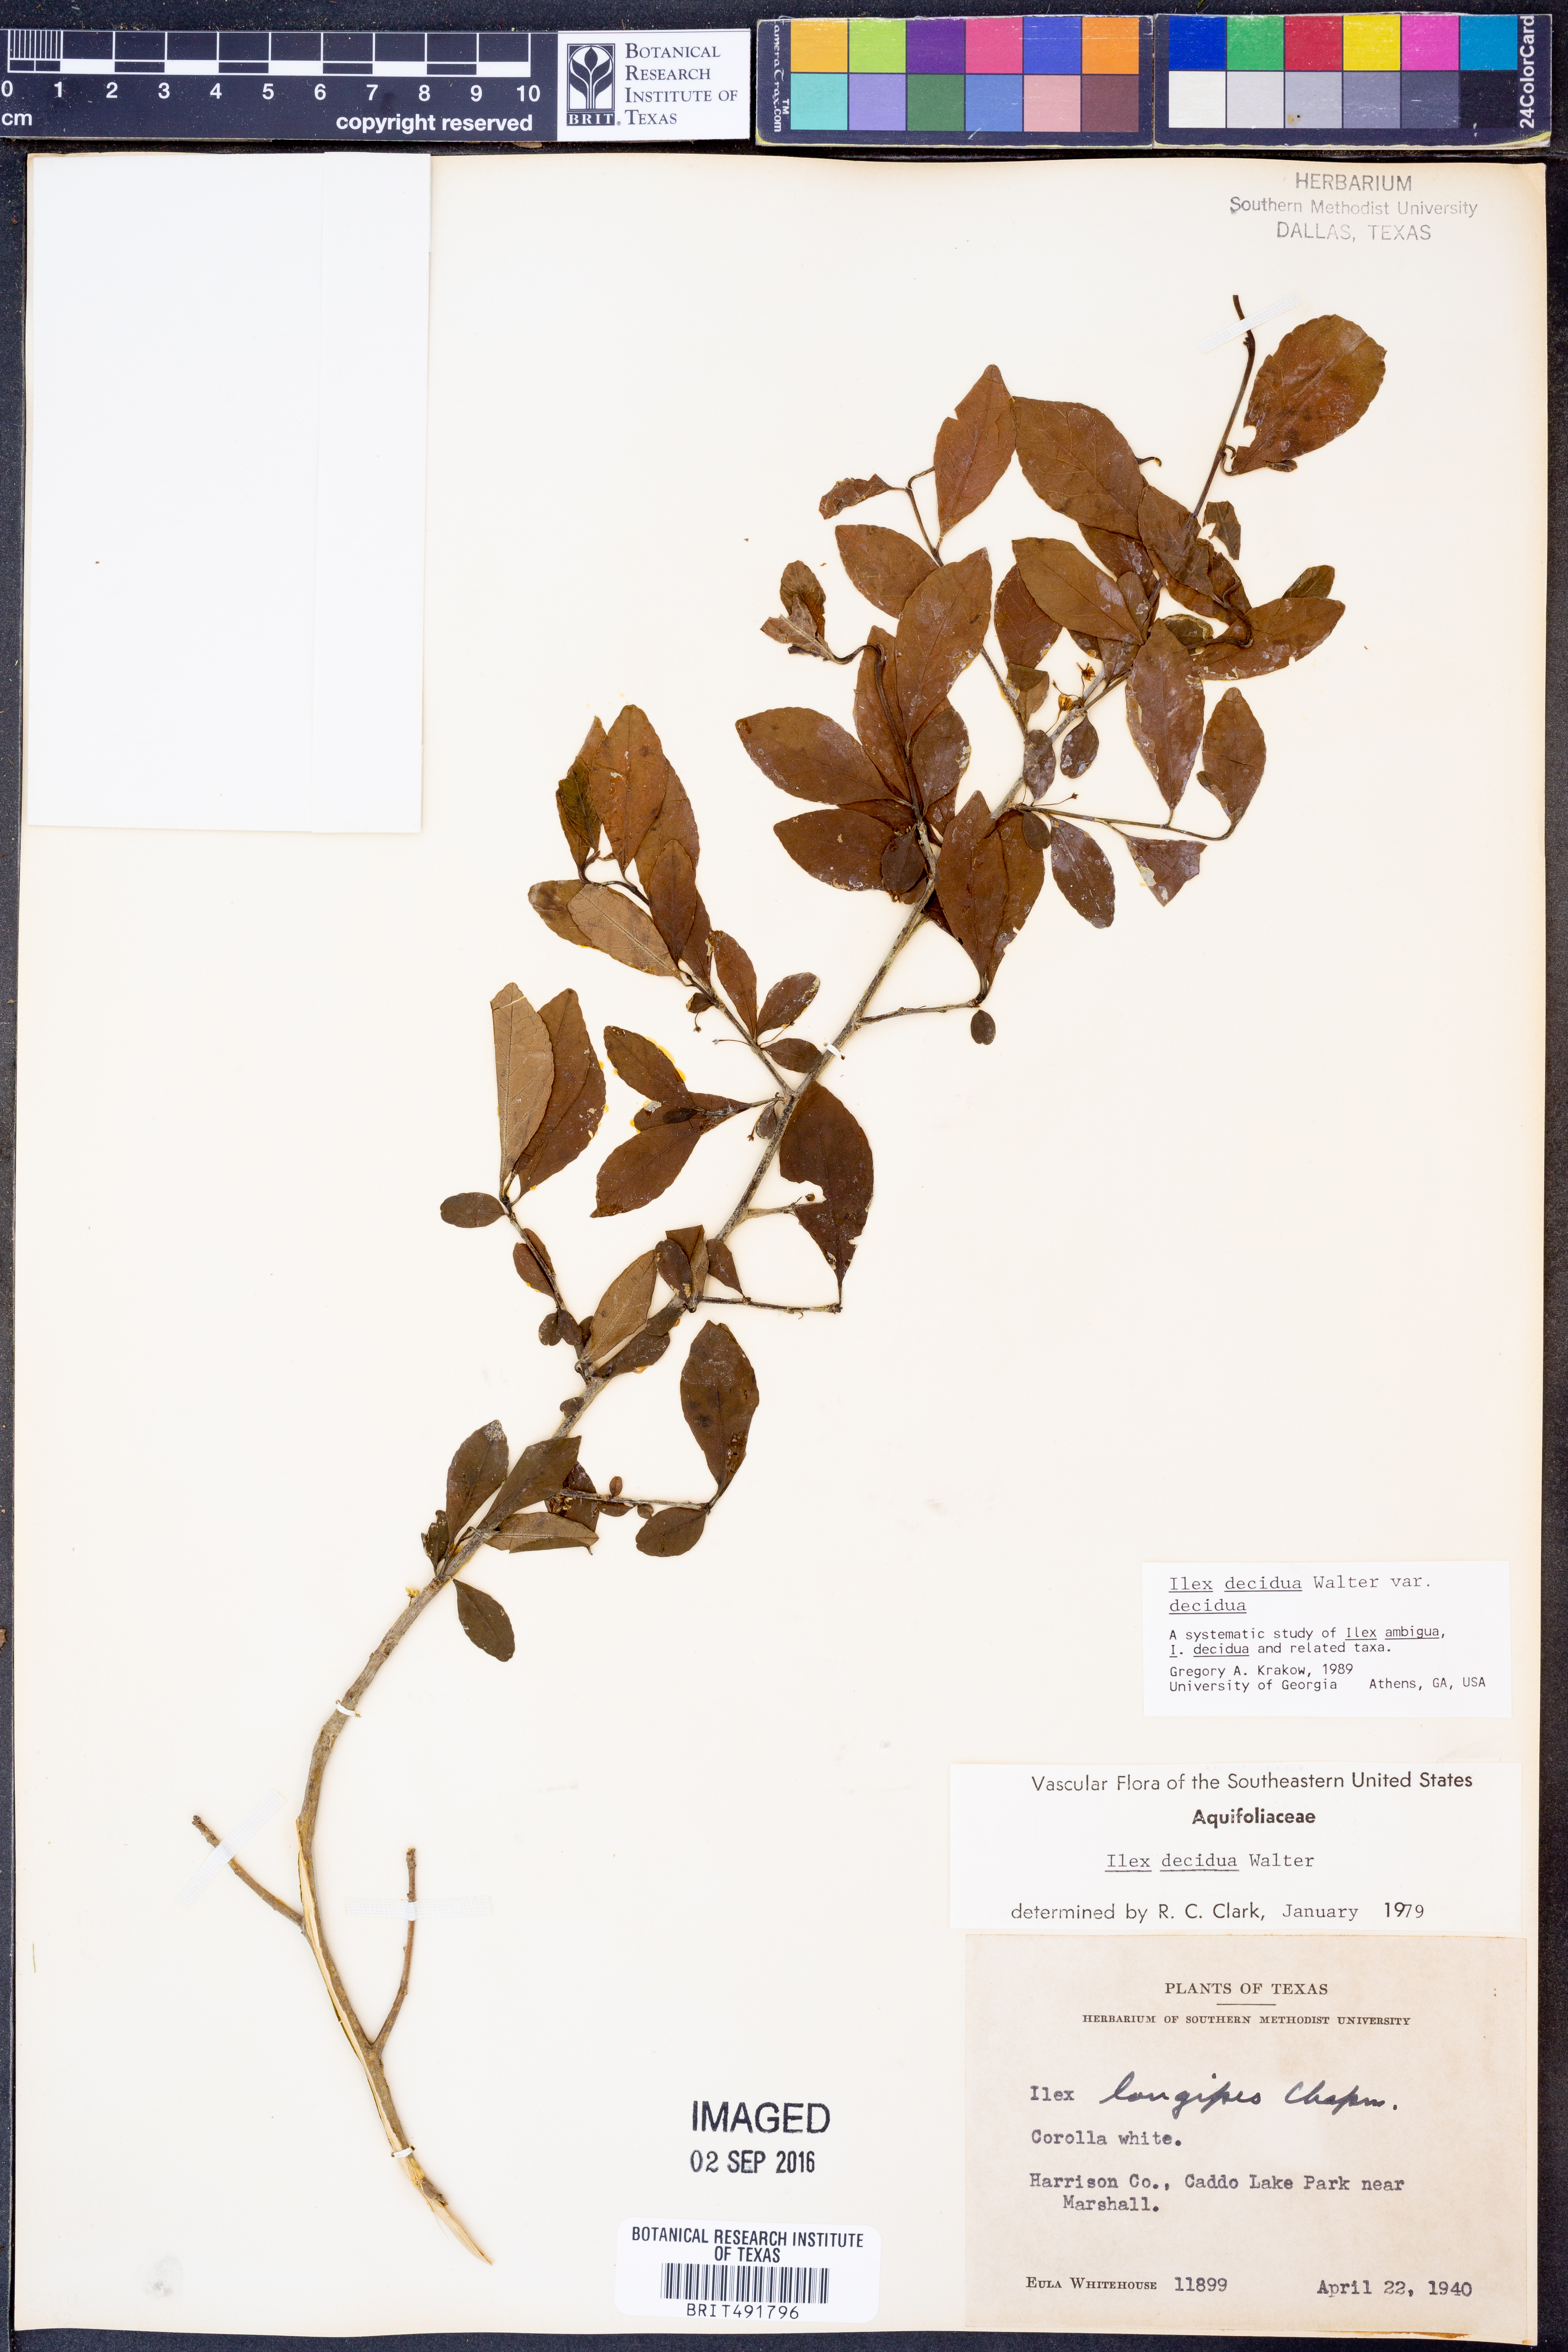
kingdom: Plantae
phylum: Tracheophyta
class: Magnoliopsida
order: Aquifoliales
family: Aquifoliaceae
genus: Ilex
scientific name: Ilex decidua
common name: Possum-haw
